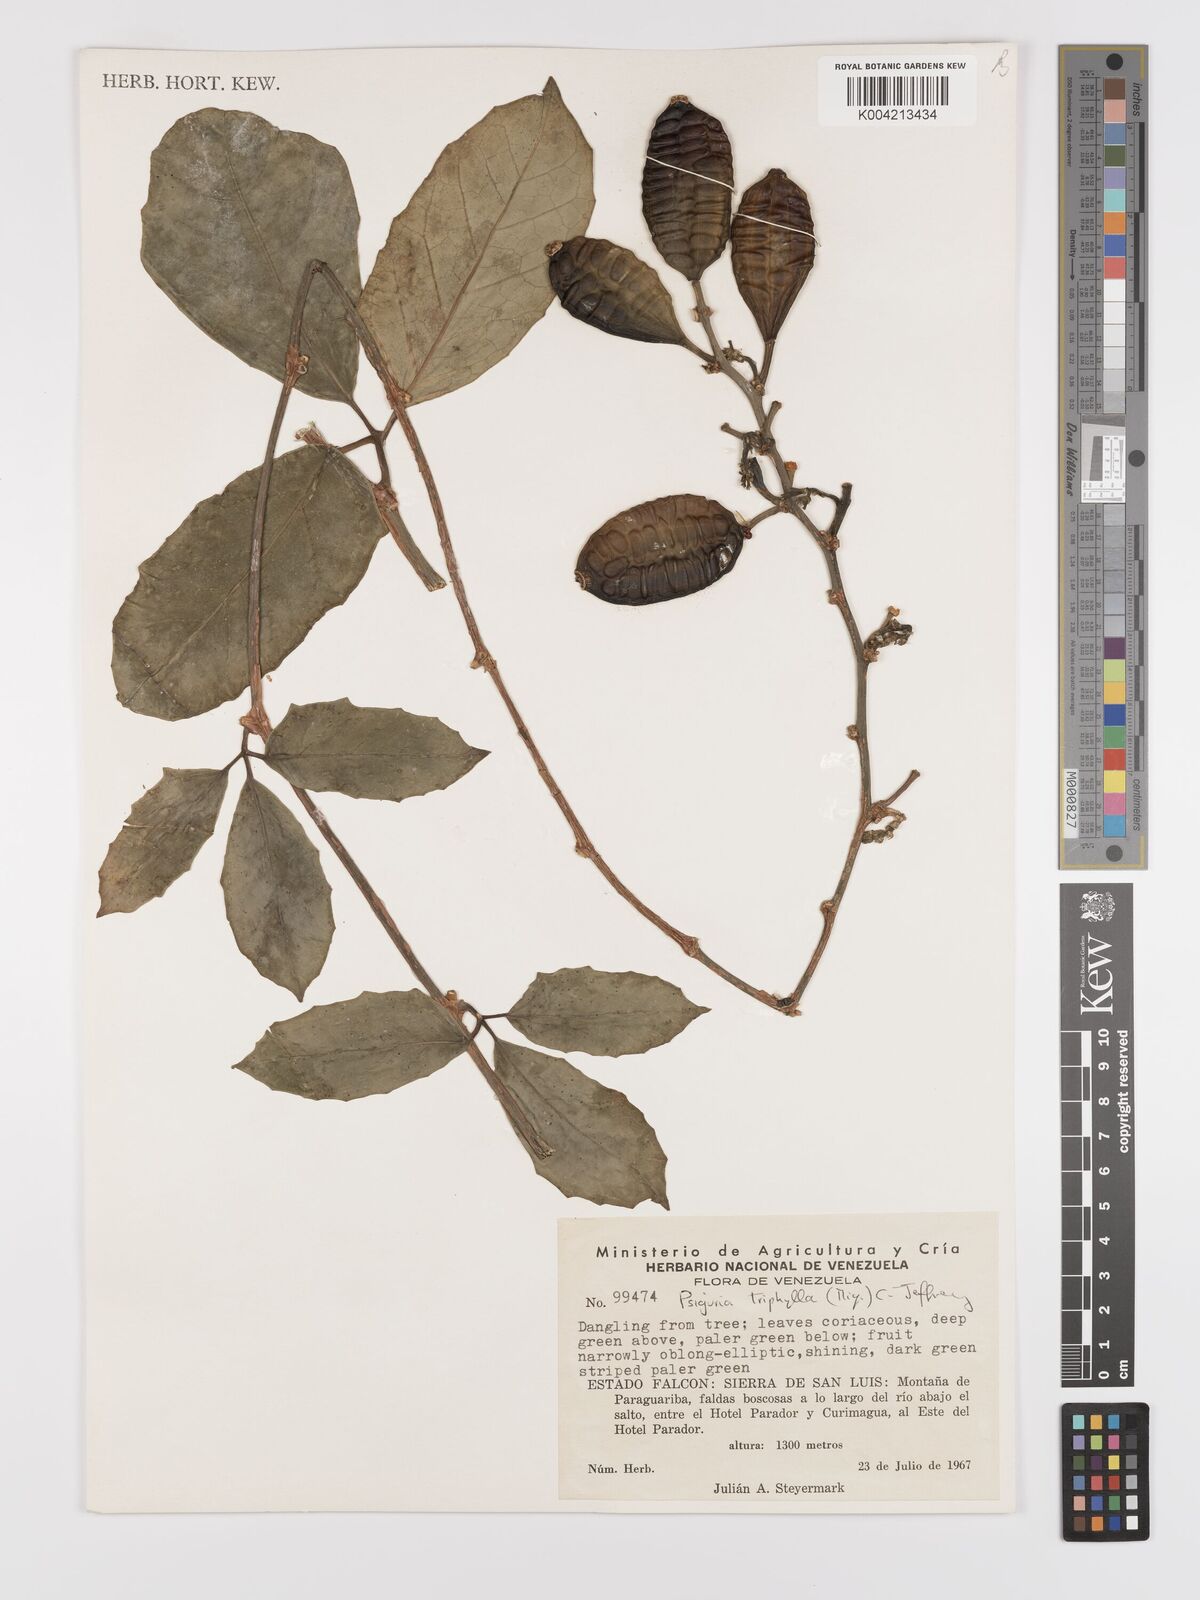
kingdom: Plantae
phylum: Tracheophyta
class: Magnoliopsida
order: Cucurbitales
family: Cucurbitaceae
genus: Psiguria
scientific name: Psiguria triphylla
